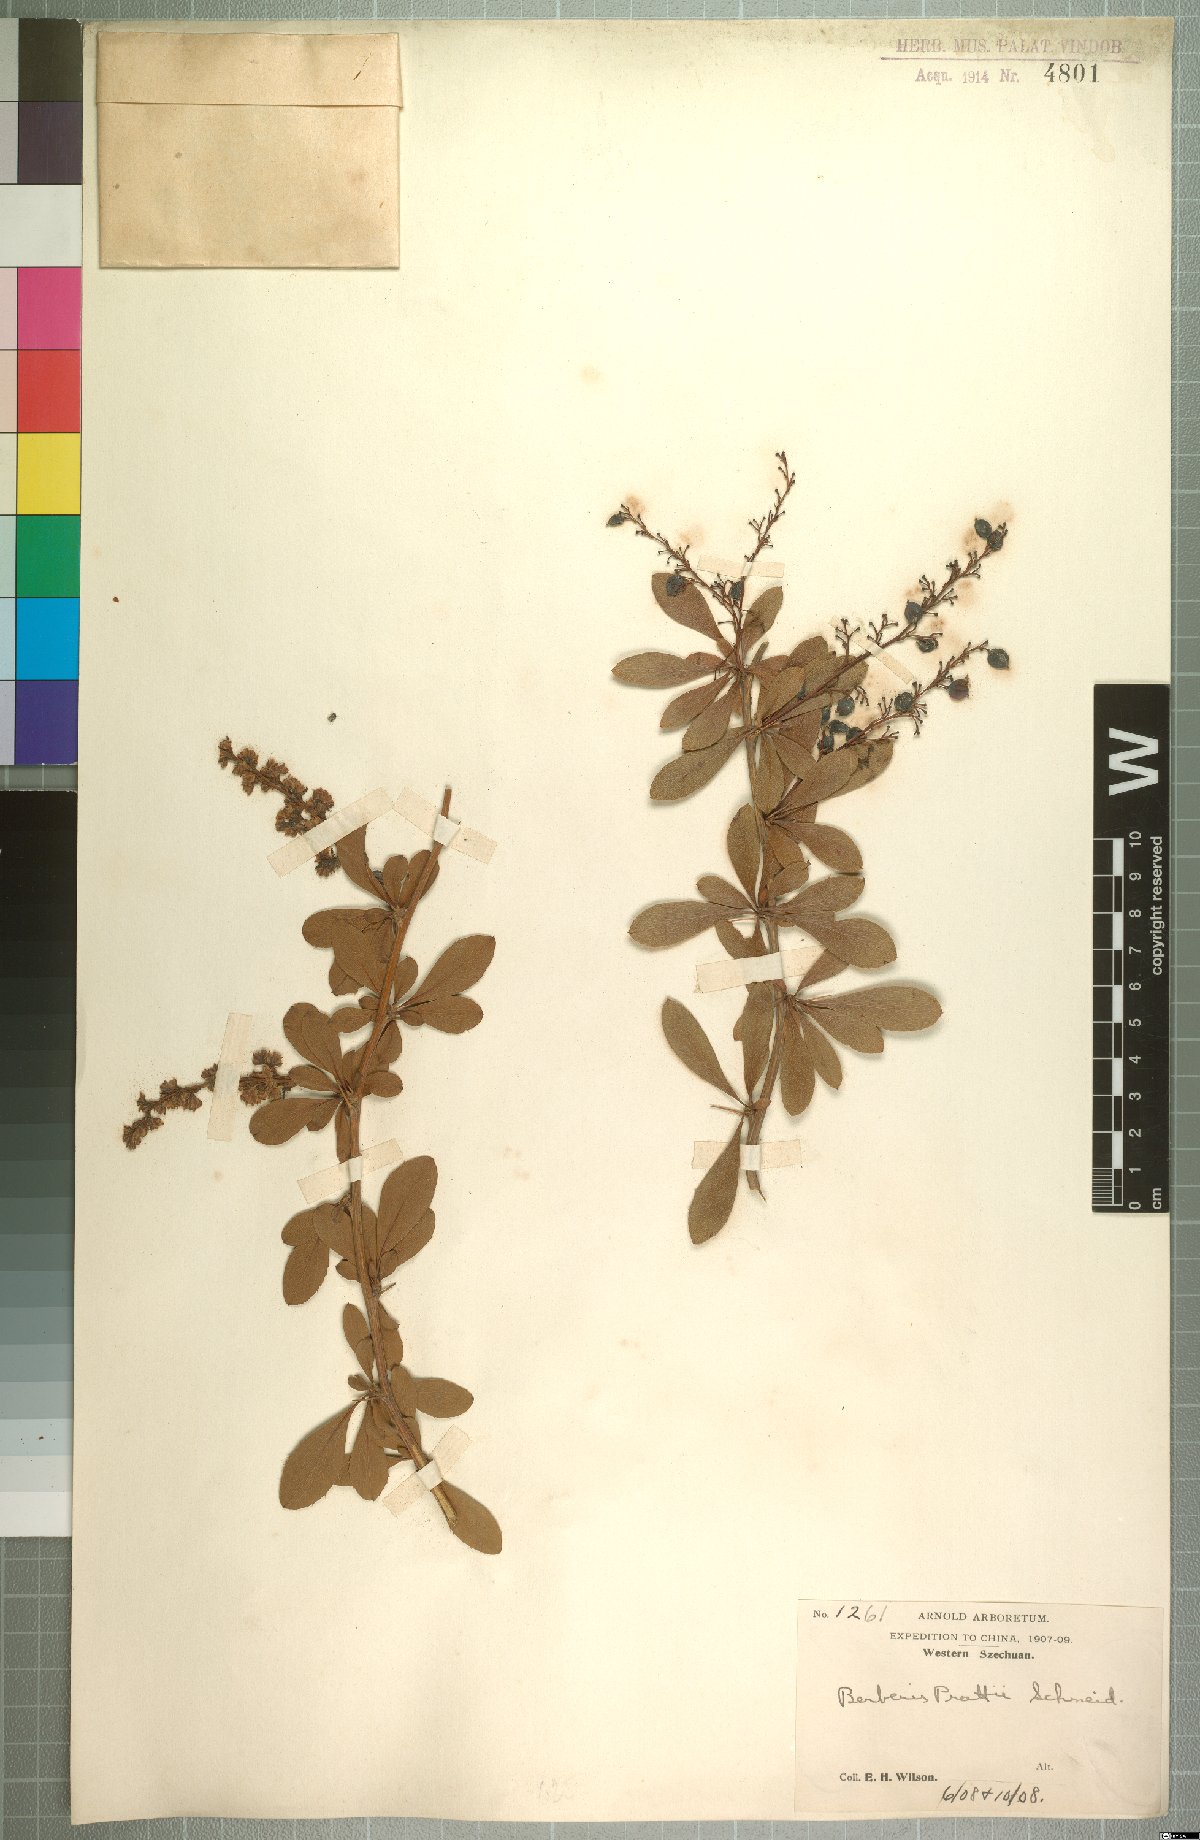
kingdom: Plantae
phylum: Tracheophyta
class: Magnoliopsida
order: Ranunculales
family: Berberidaceae
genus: Berberis
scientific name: Berberis prattii
